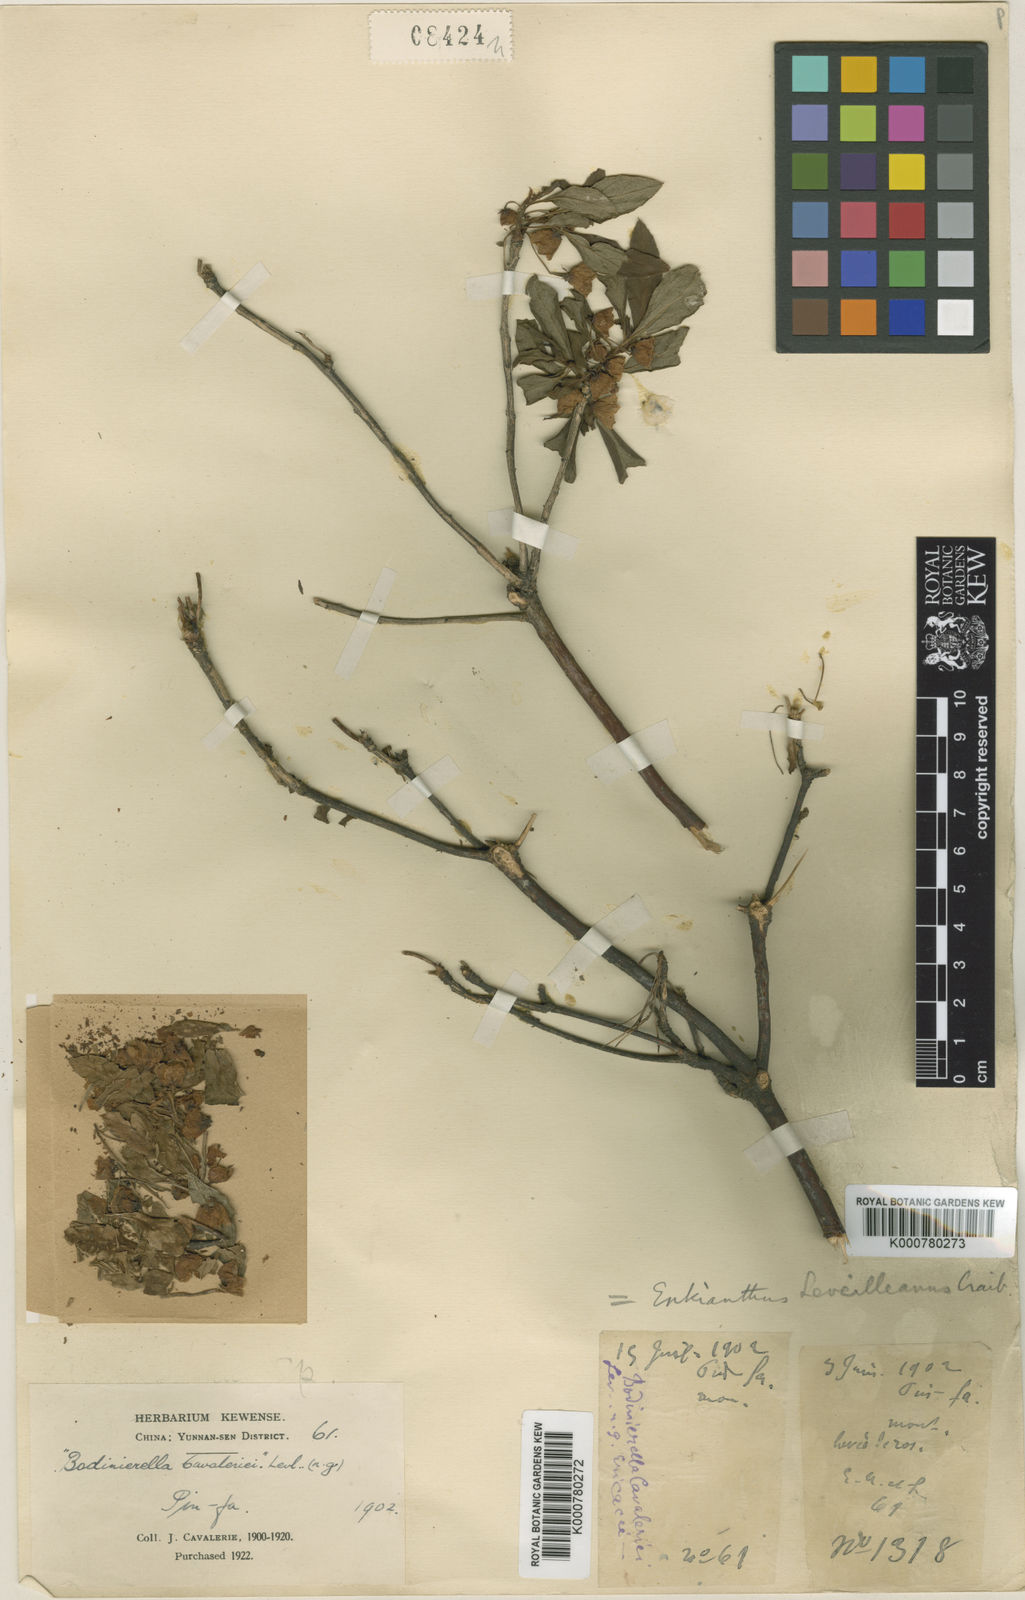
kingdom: Plantae
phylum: Tracheophyta
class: Magnoliopsida
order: Ericales
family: Ericaceae
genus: Enkianthus
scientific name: Enkianthus deflexus
